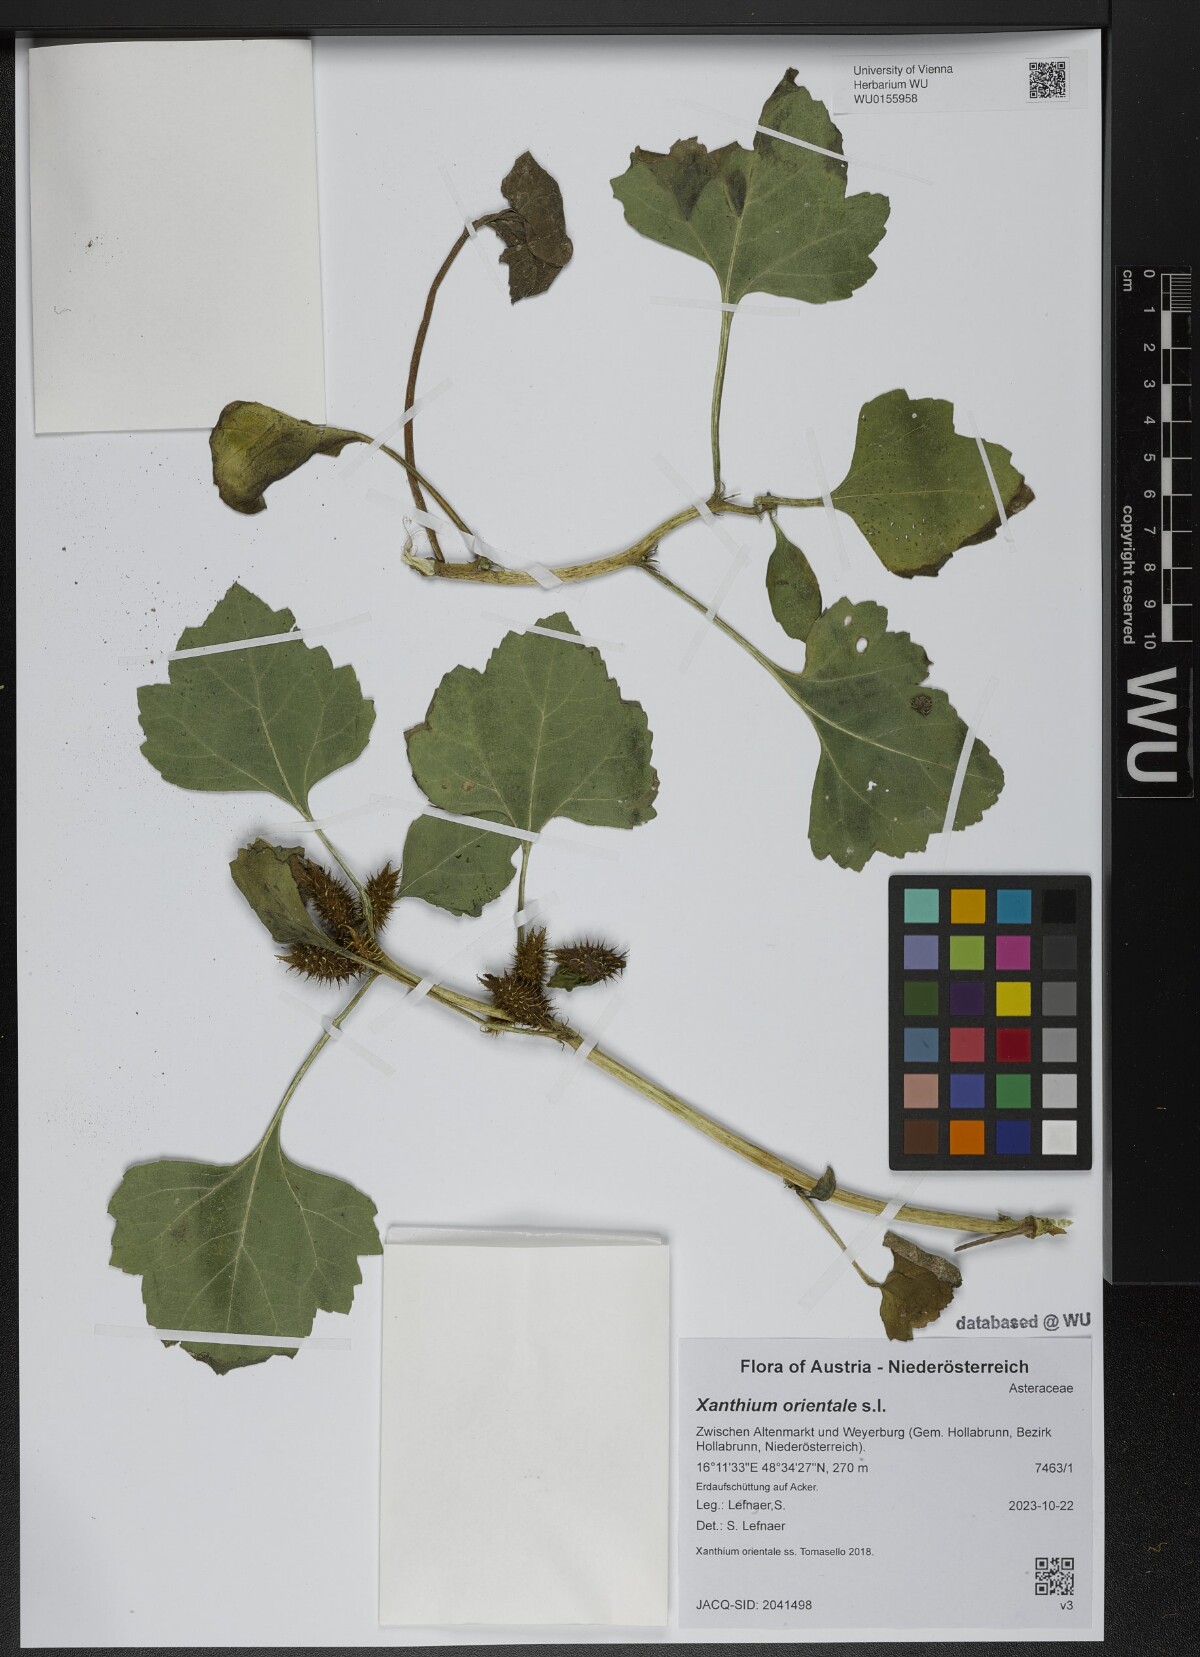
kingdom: Plantae
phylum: Tracheophyta
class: Magnoliopsida
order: Asterales
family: Asteraceae
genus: Xanthium
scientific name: Xanthium orientale
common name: Californian burr
